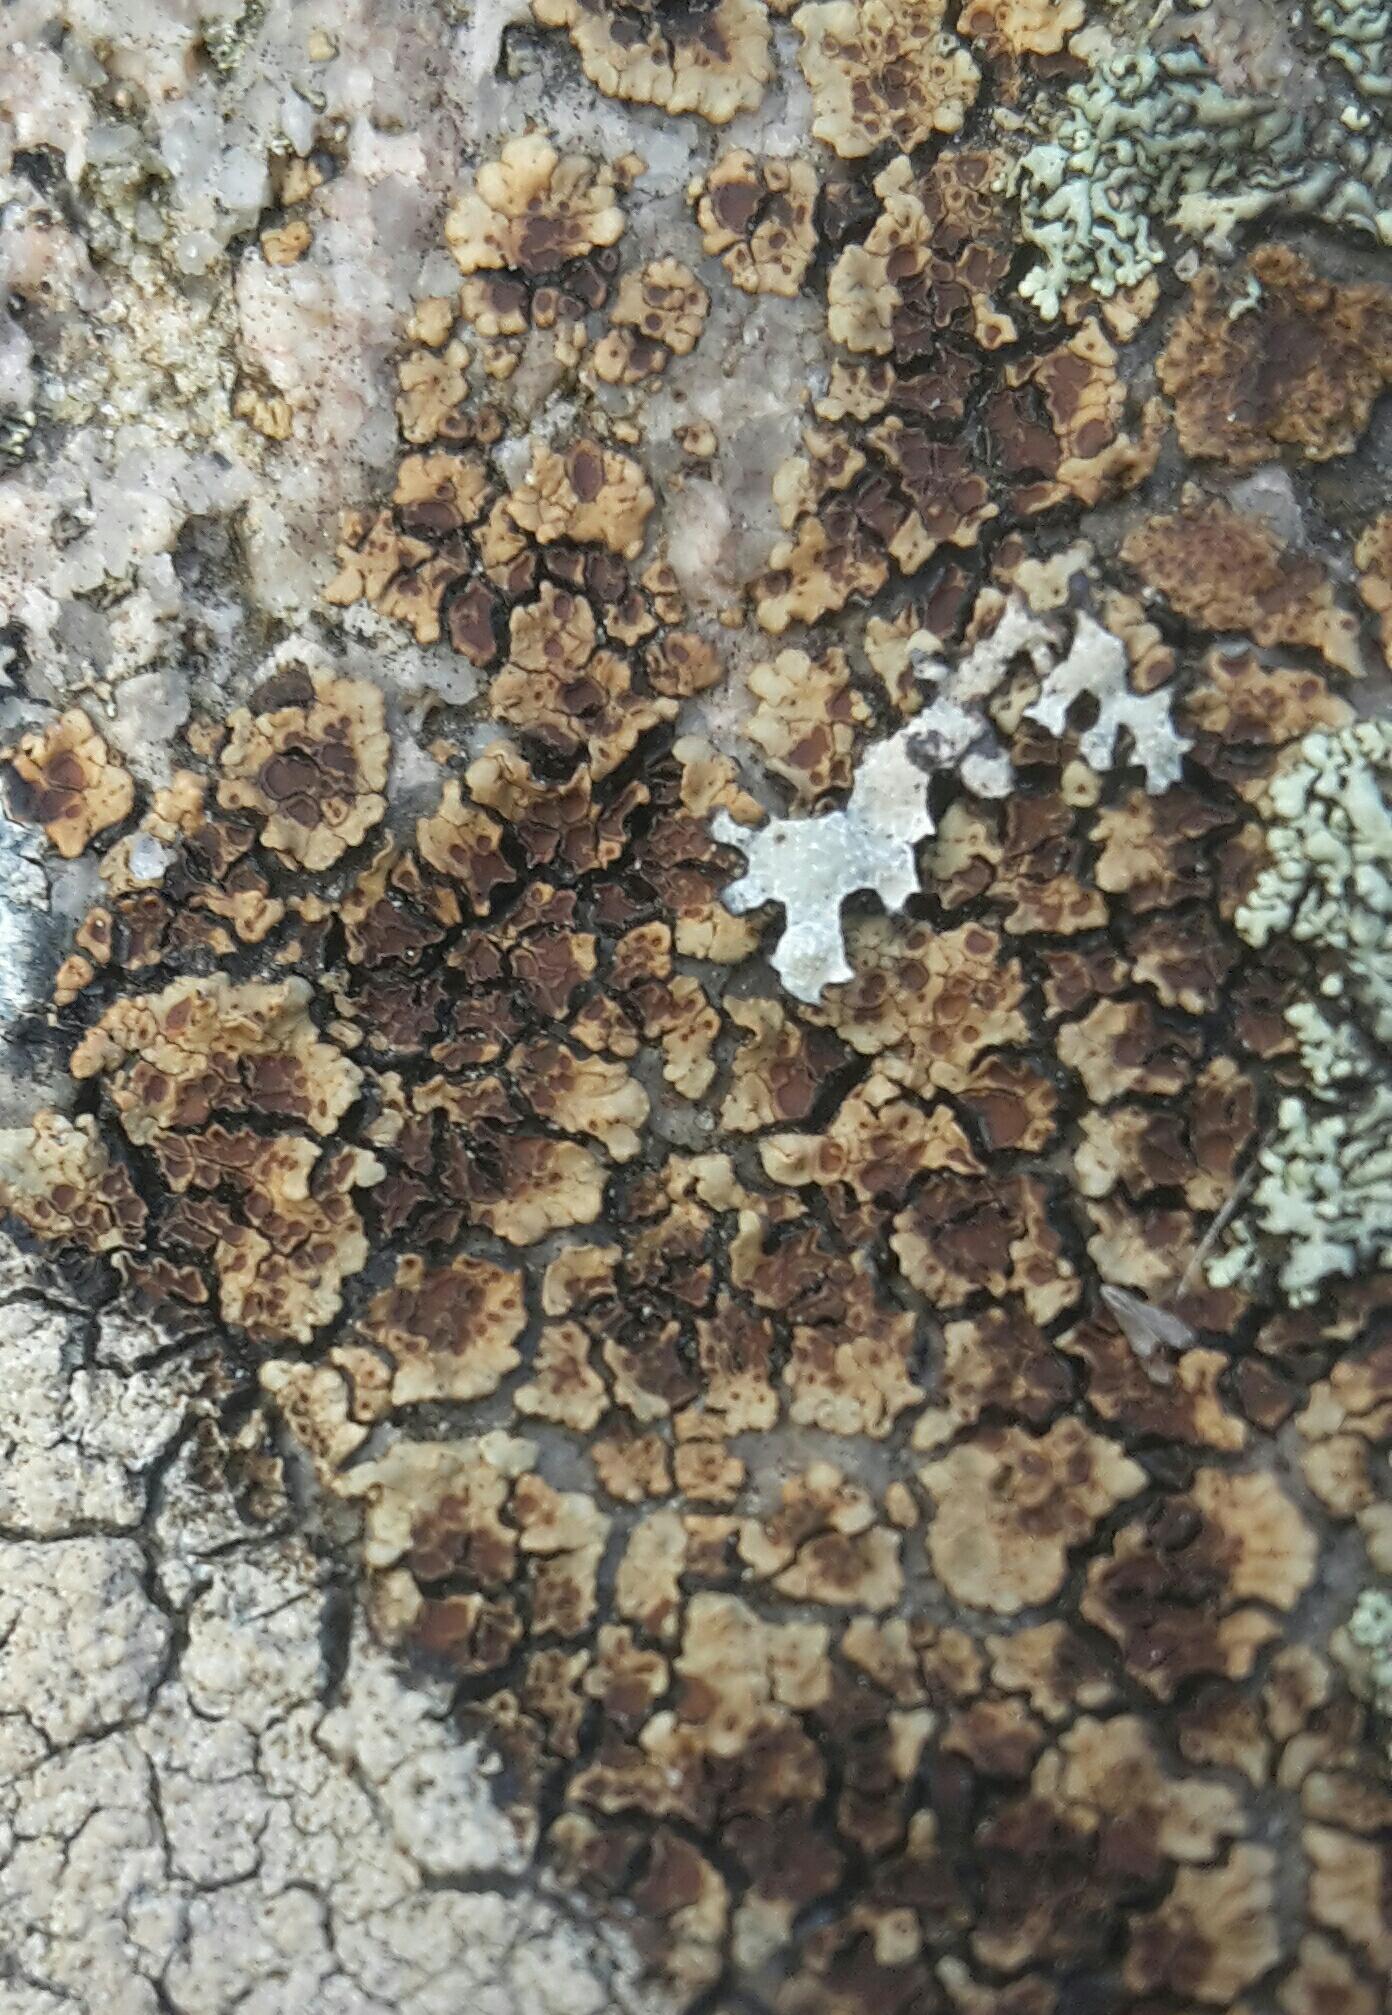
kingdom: Fungi
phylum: Ascomycota
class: Lecanoromycetes
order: Acarosporales
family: Acarosporaceae
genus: Acarospora
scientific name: Acarospora fuscata
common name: brun småsporelav
